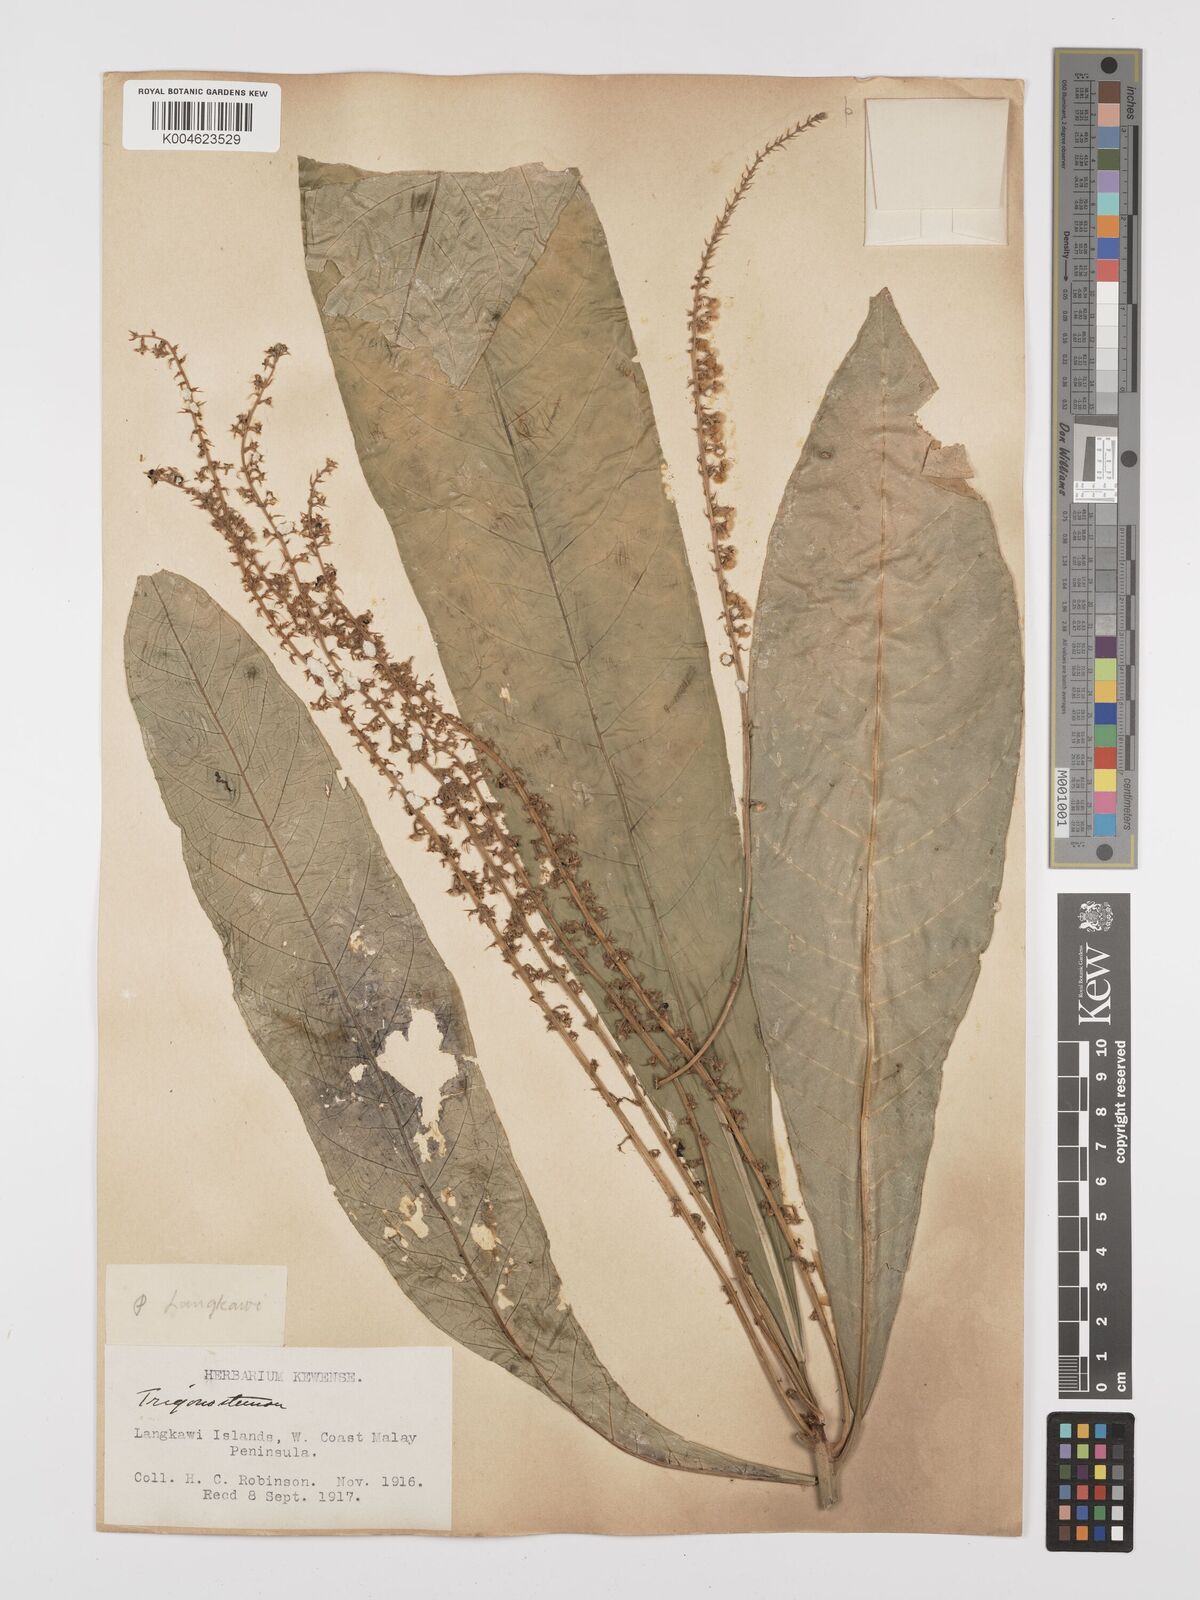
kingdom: Plantae
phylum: Tracheophyta
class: Magnoliopsida
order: Malpighiales
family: Euphorbiaceae
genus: Trigonostemon
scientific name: Trigonostemon longifolius
